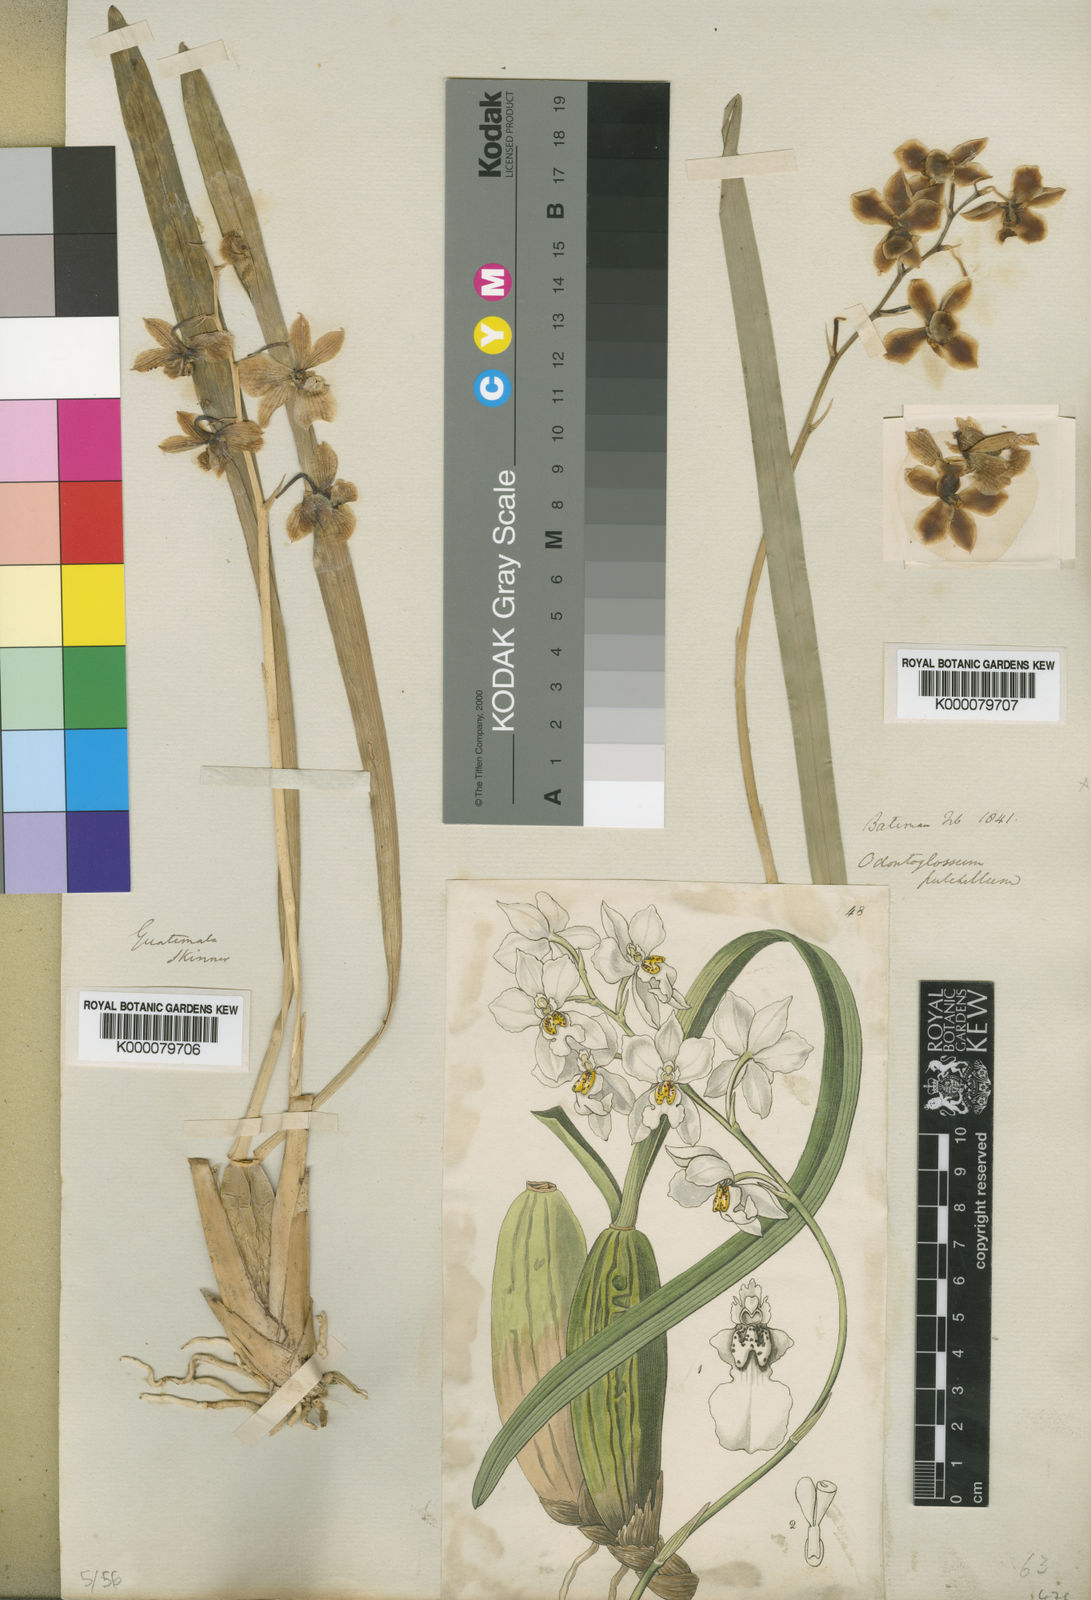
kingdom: Plantae
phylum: Tracheophyta
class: Liliopsida
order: Asparagales
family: Orchidaceae
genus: Cuitlauzina
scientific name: Cuitlauzina pulchella
